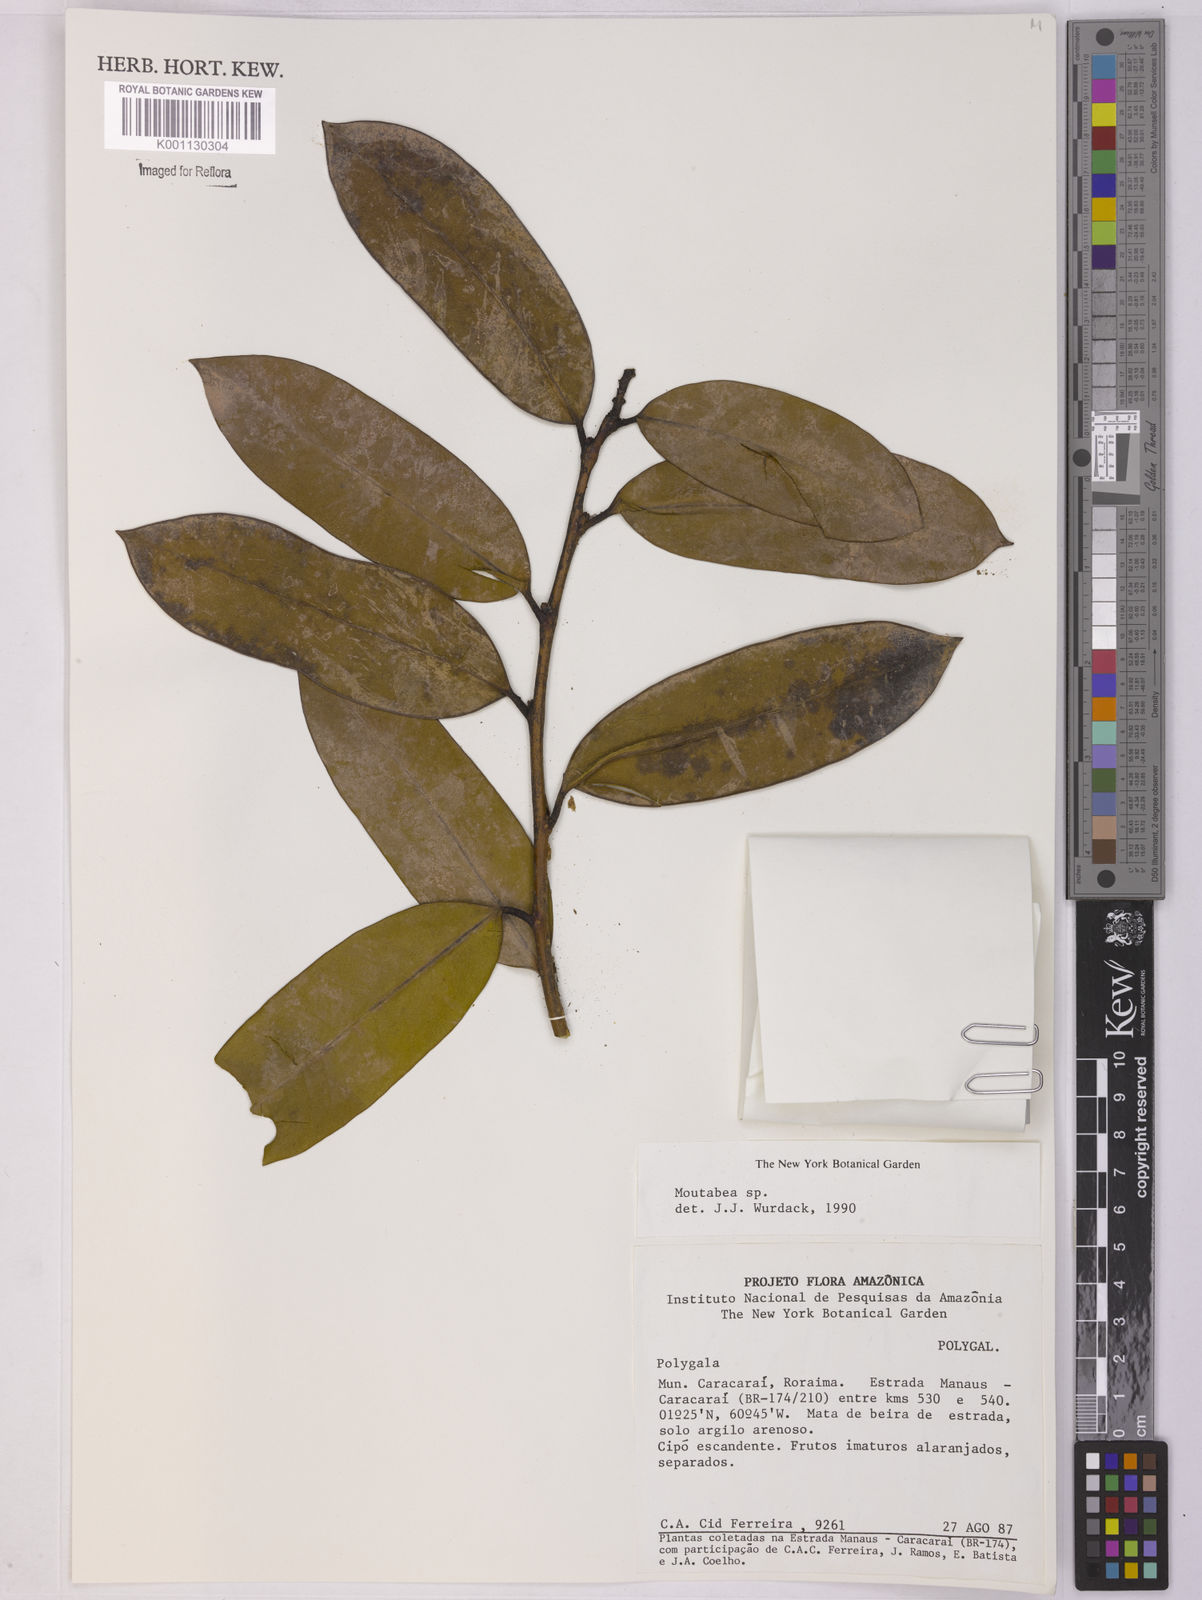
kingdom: Plantae
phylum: Tracheophyta
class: Magnoliopsida
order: Fabales
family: Polygalaceae
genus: Moutabea
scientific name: Moutabea
